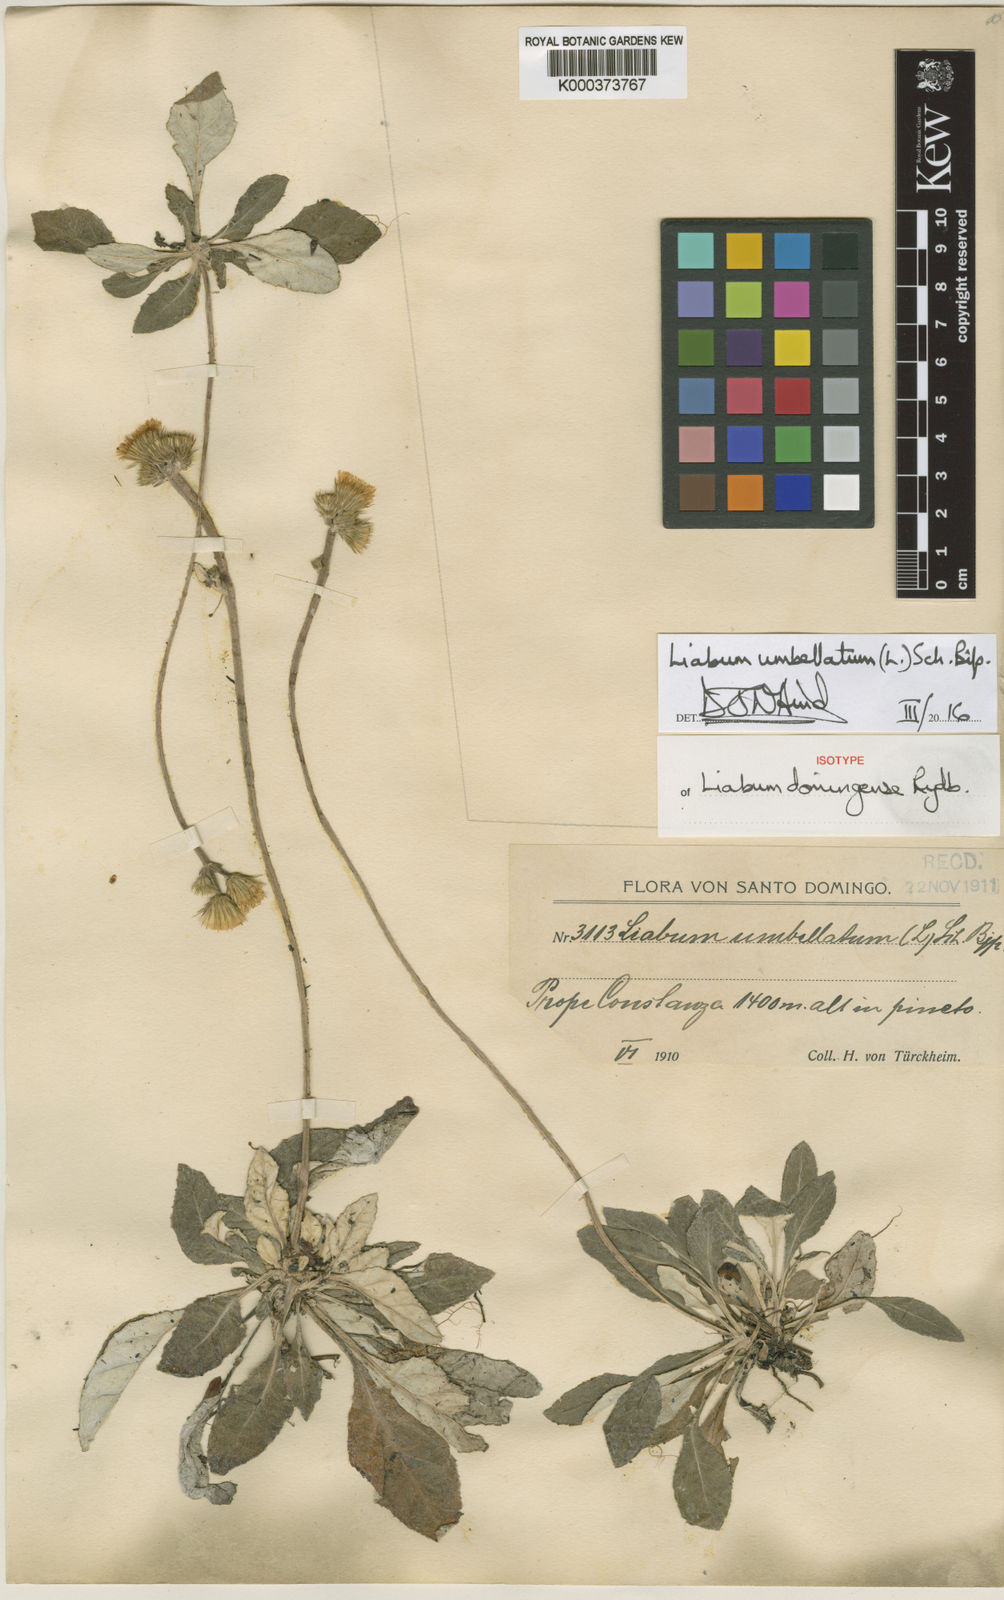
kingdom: Plantae
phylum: Tracheophyta
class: Magnoliopsida
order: Asterales
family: Asteraceae
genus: Liabum
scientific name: Liabum umbellatum
